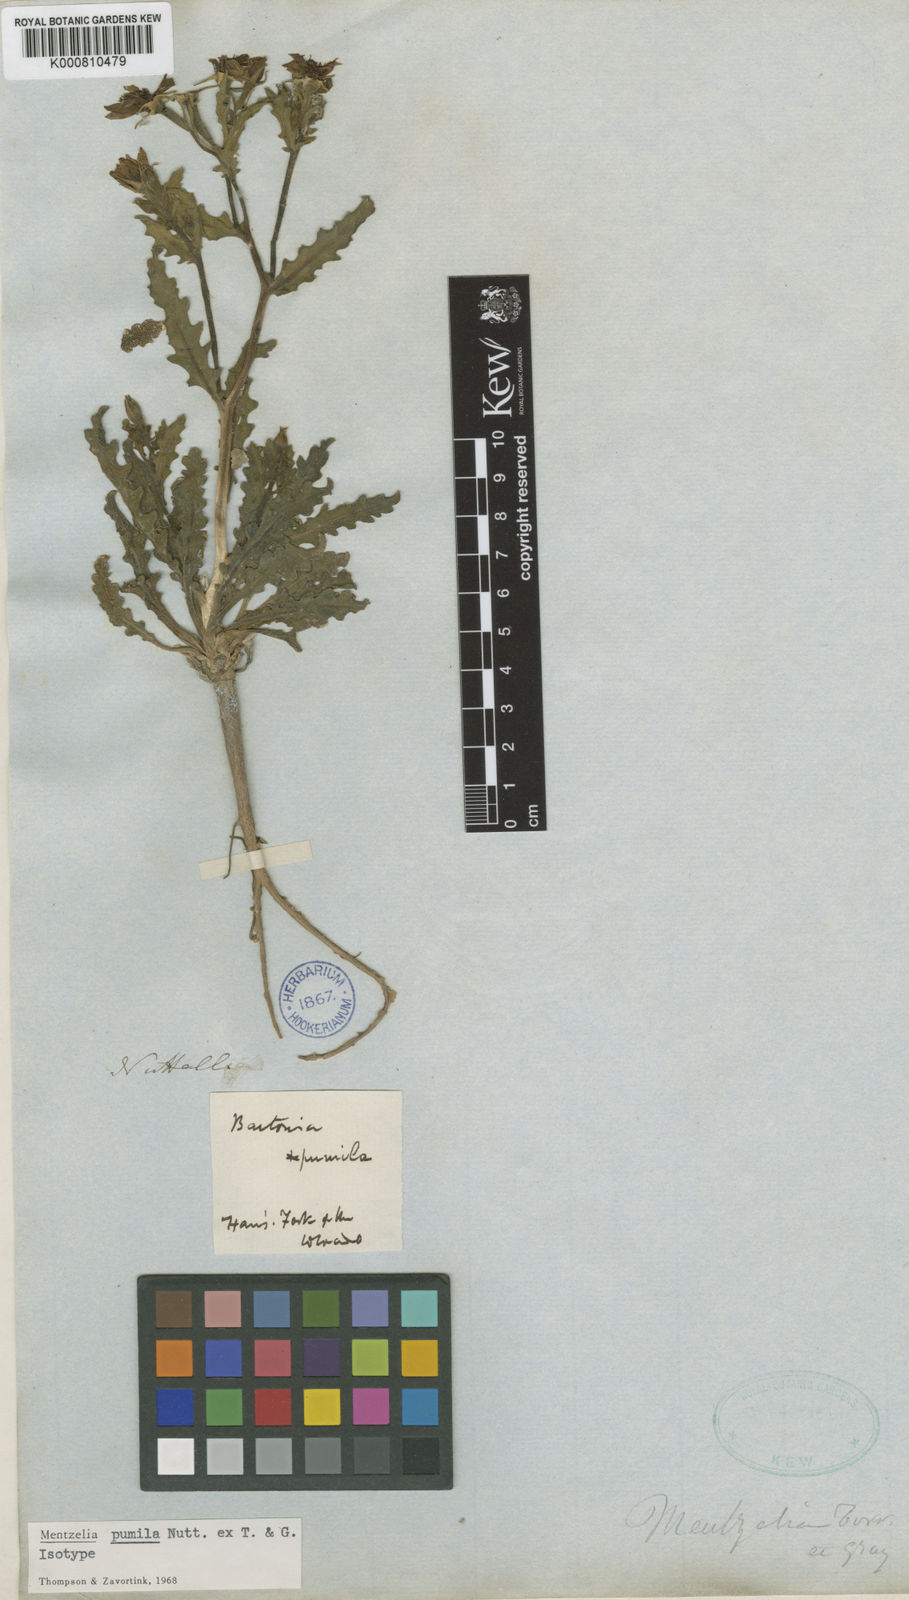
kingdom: Plantae
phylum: Tracheophyta
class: Magnoliopsida
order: Cornales
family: Loasaceae
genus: Mentzelia
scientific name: Mentzelia
